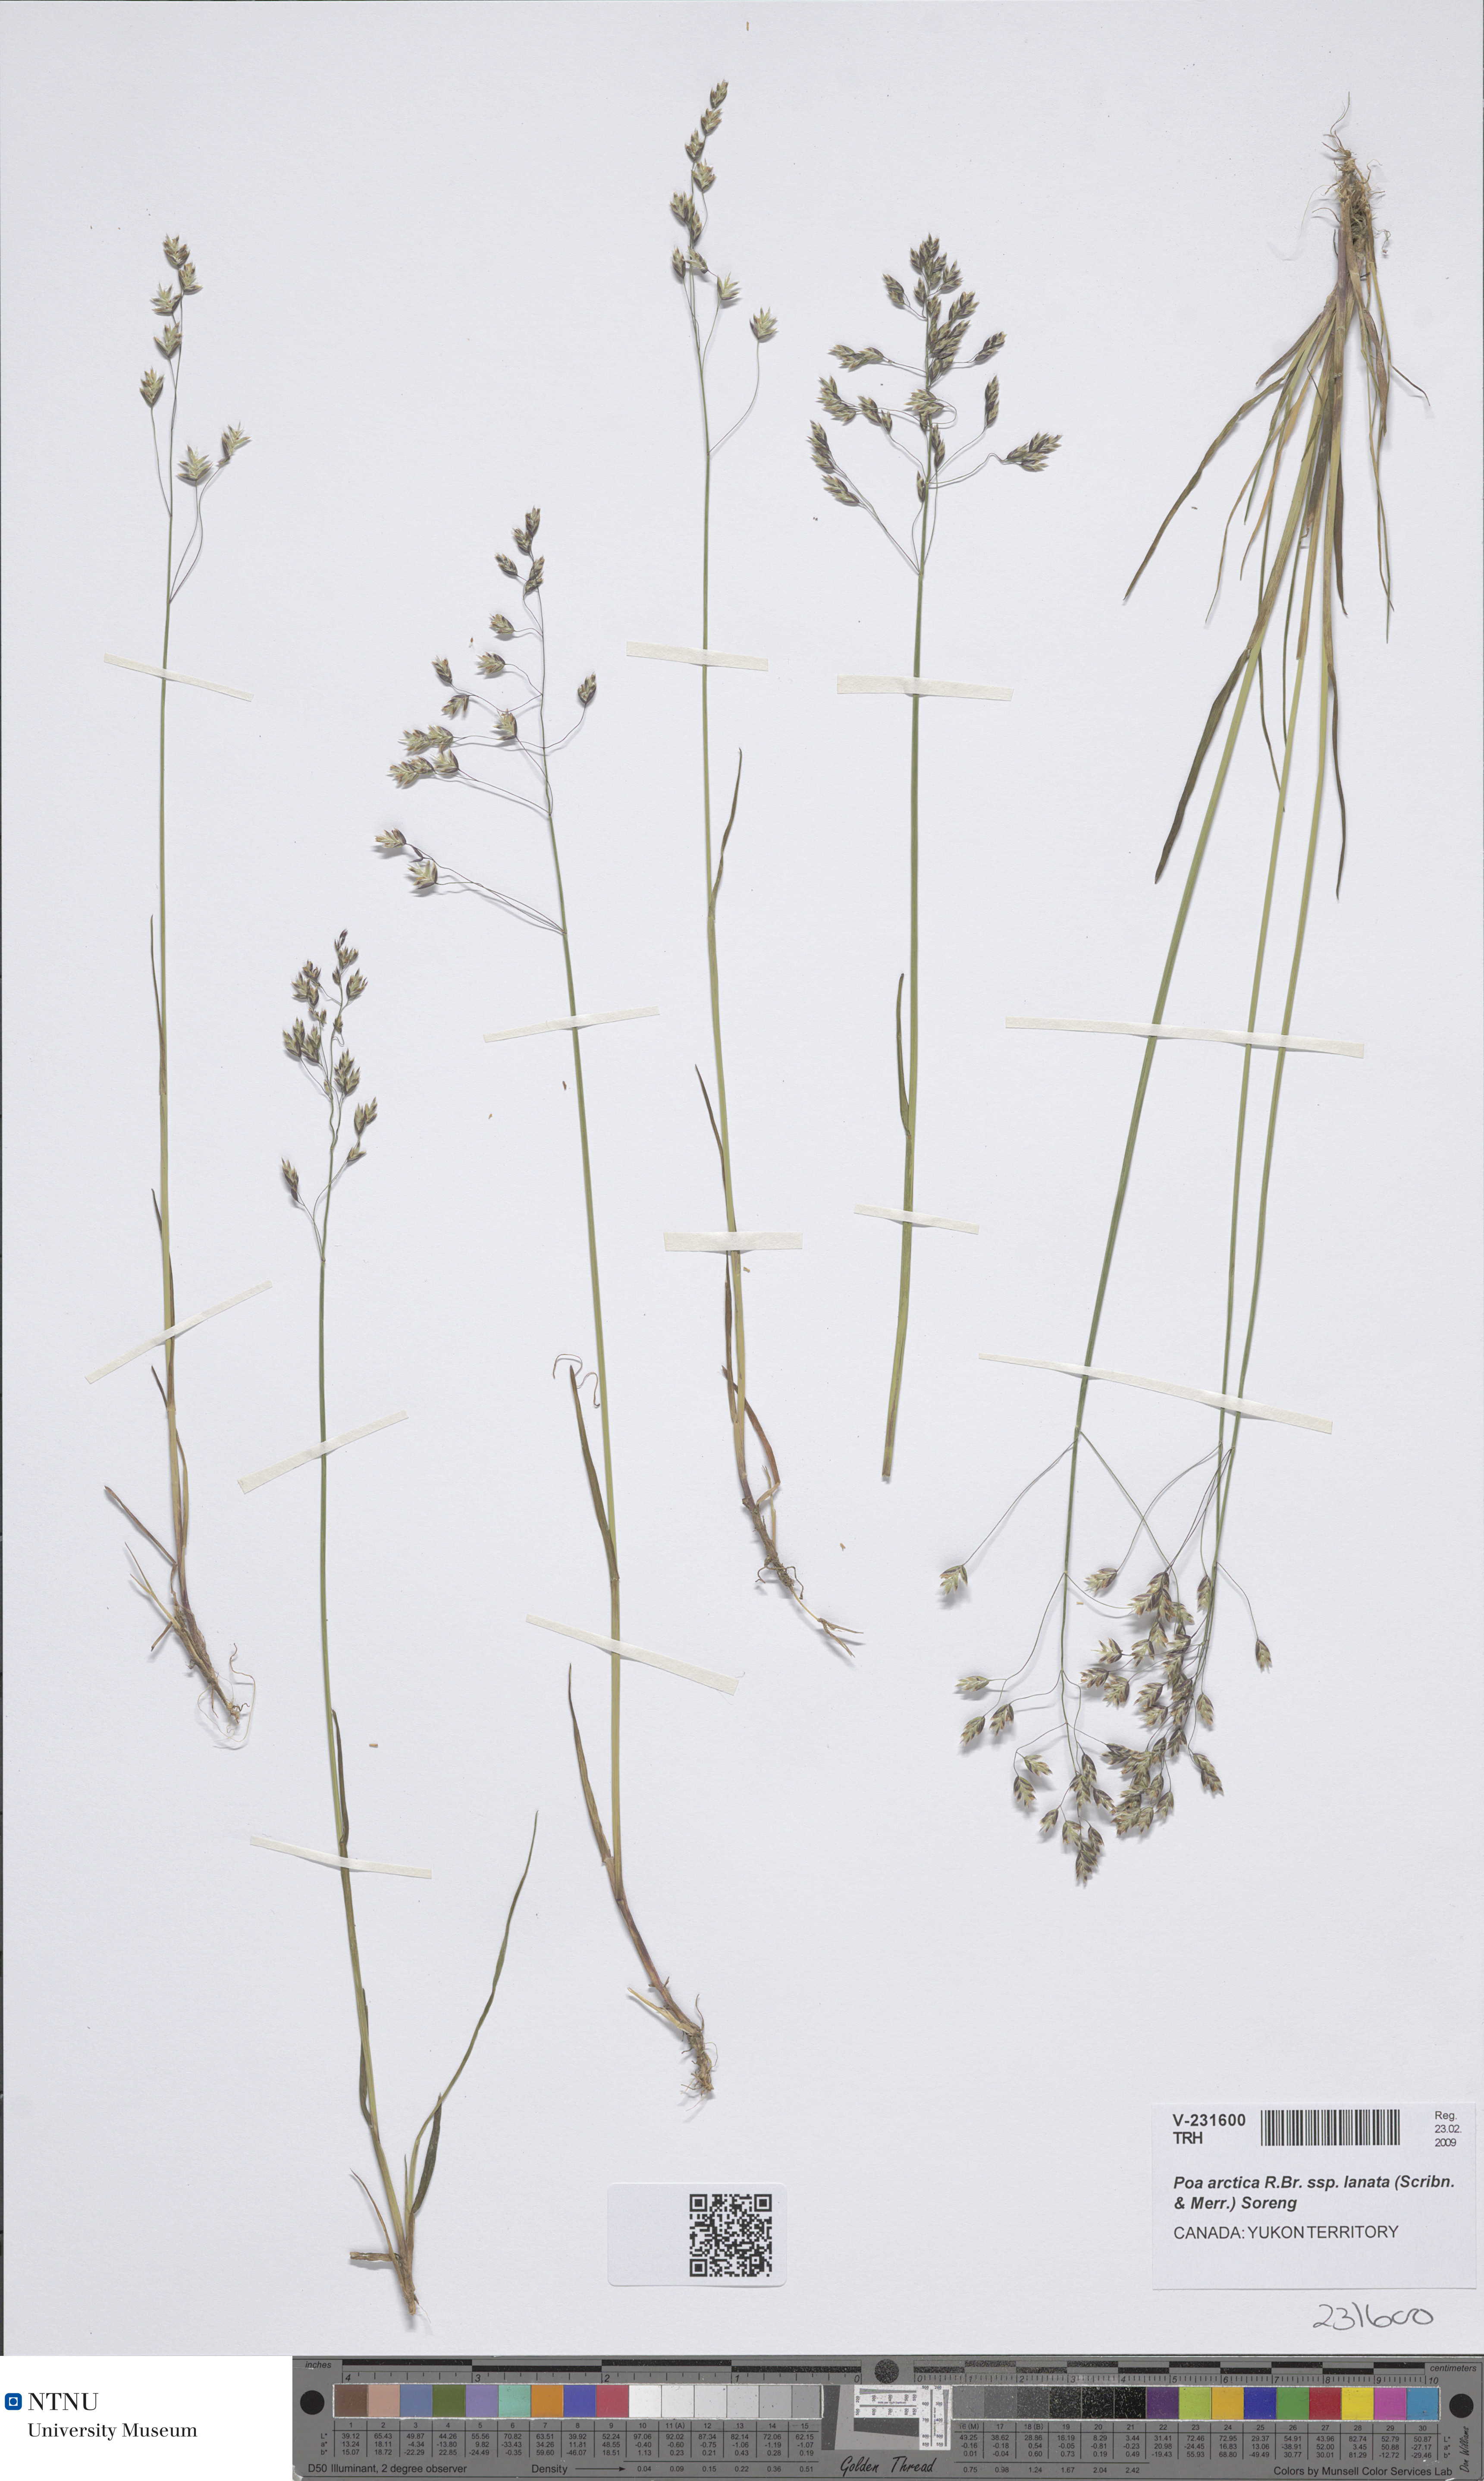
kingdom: Plantae
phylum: Tracheophyta
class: Liliopsida
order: Poales
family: Poaceae
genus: Poa
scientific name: Poa lanata
